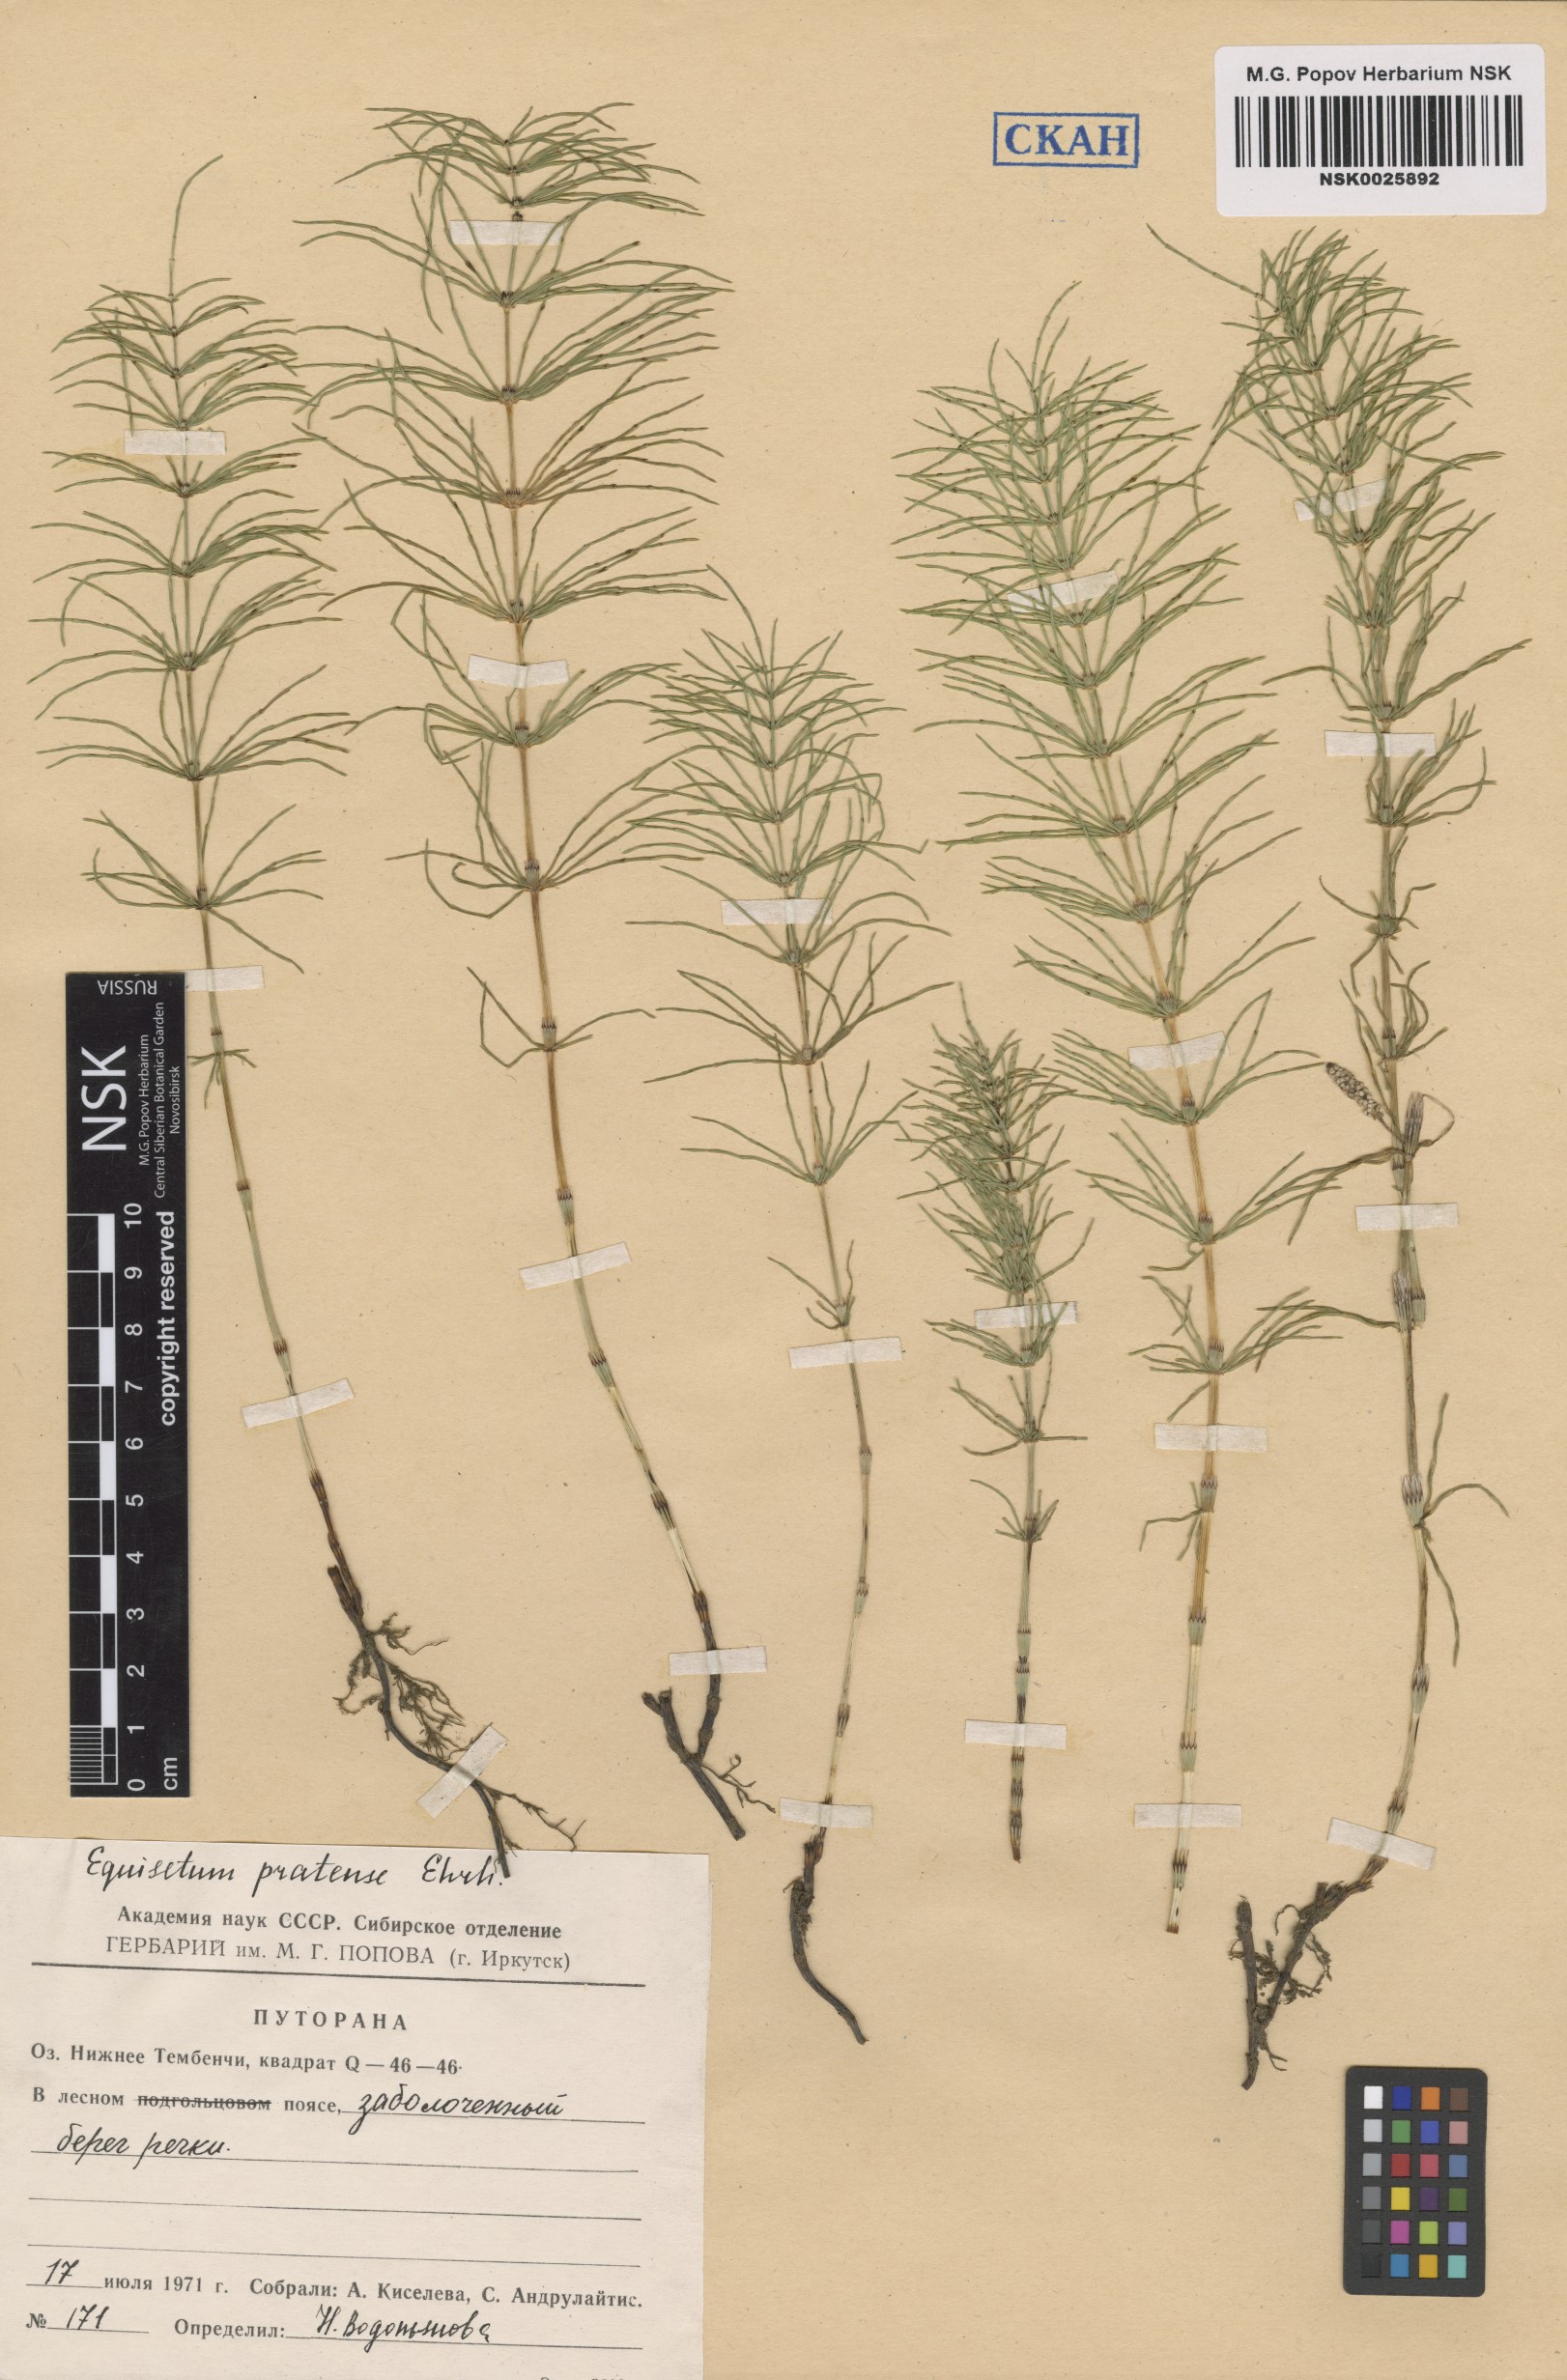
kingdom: Plantae
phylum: Tracheophyta
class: Polypodiopsida
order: Equisetales
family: Equisetaceae
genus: Equisetum
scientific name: Equisetum pratense
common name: Meadow horsetail
